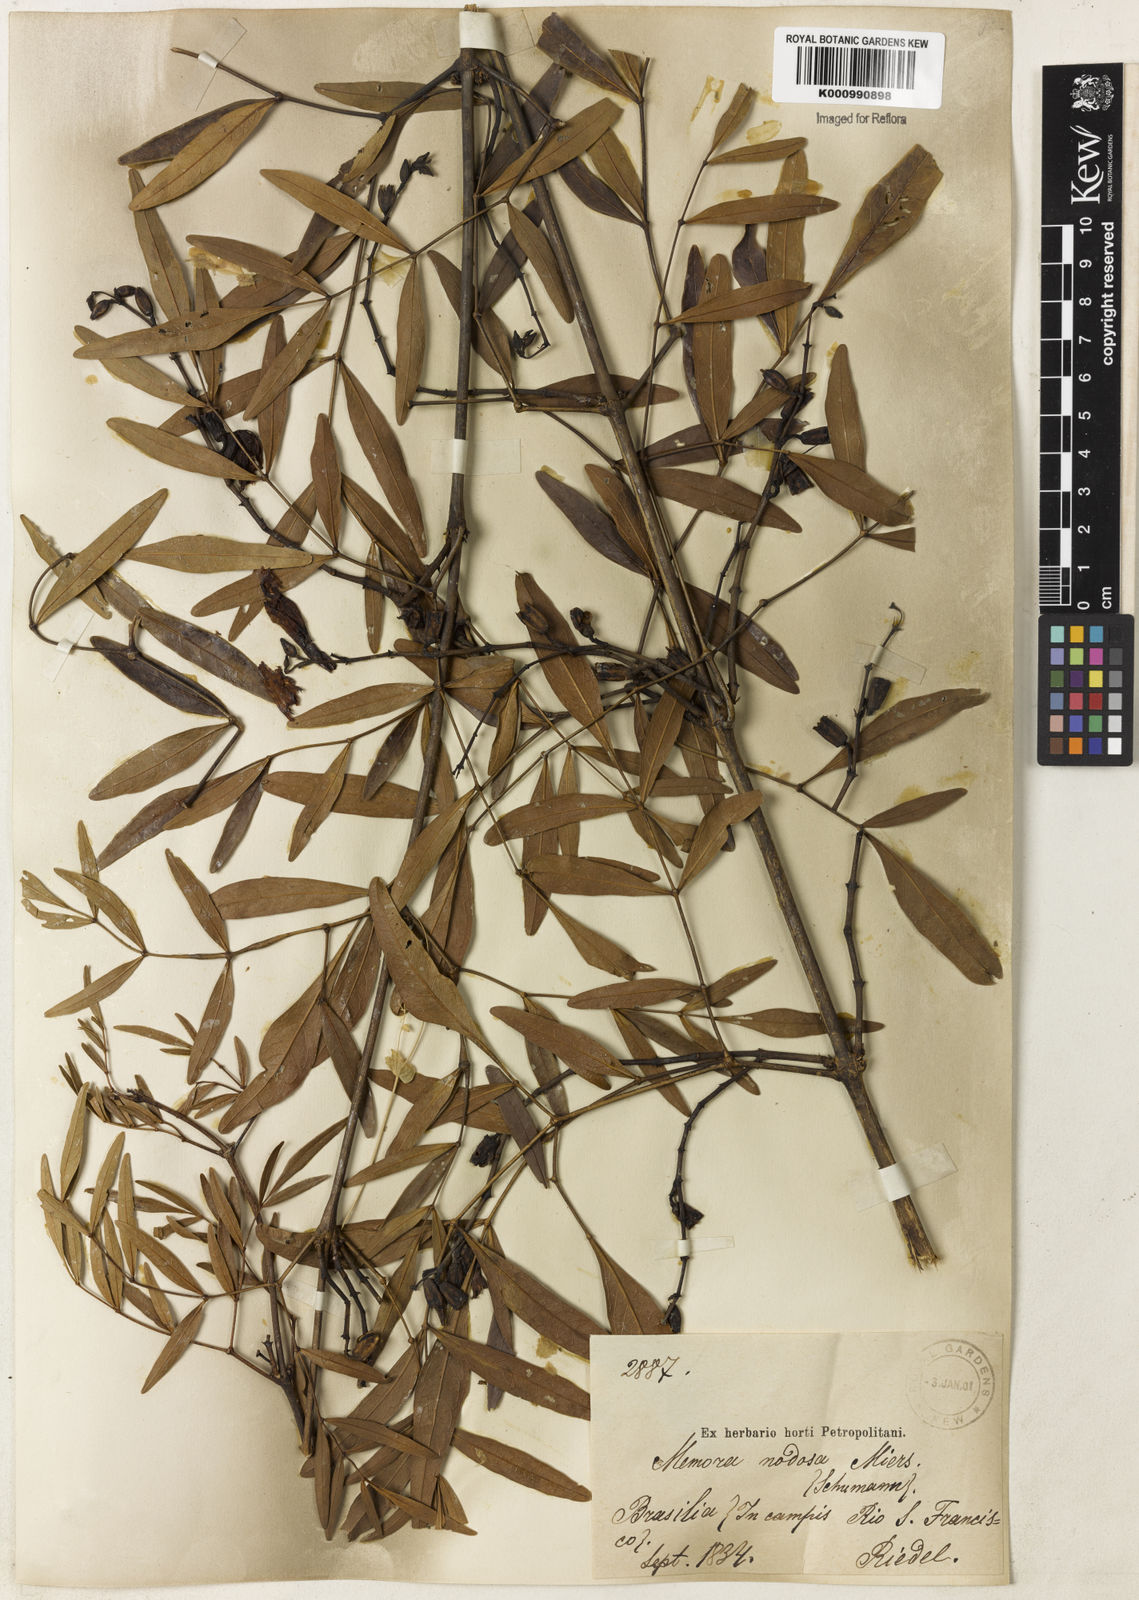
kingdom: Plantae
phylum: Tracheophyta
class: Magnoliopsida
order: Lamiales
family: Bignoniaceae
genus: Adenocalymma
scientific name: Adenocalymma nodosum
